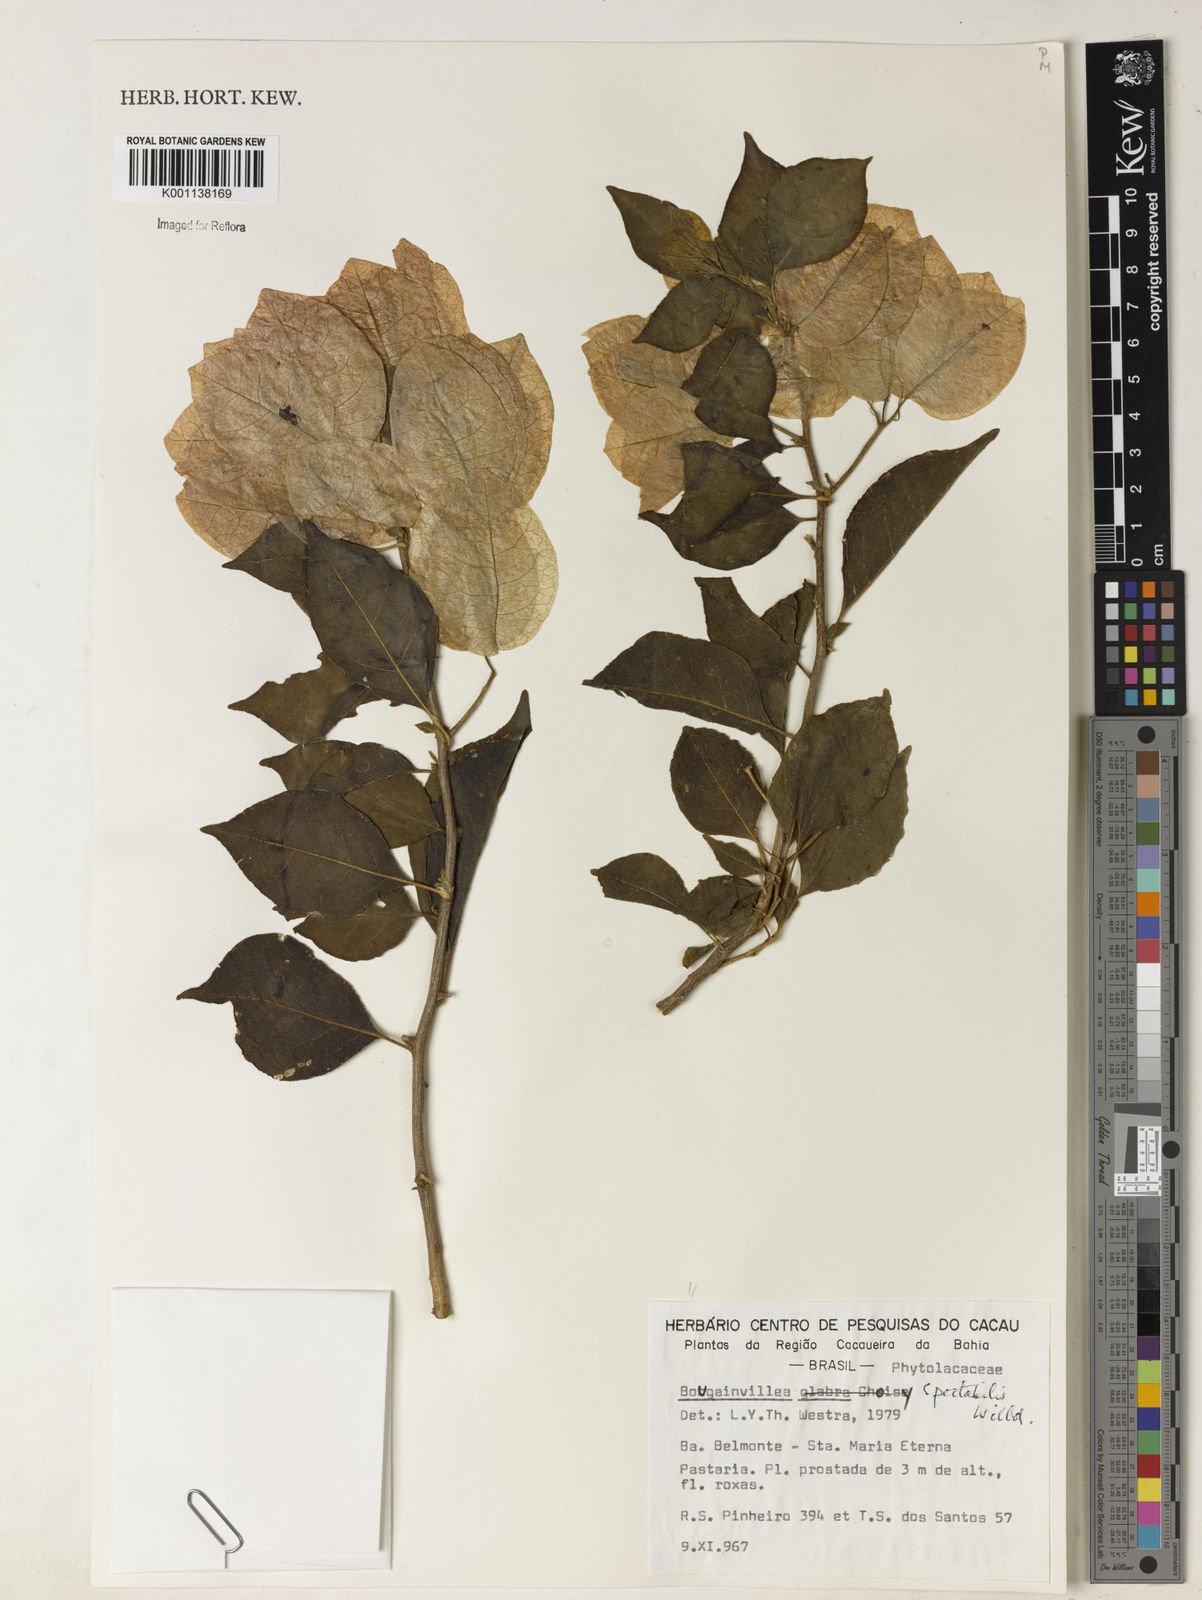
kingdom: Plantae
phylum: Tracheophyta
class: Magnoliopsida
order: Caryophyllales
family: Nyctaginaceae
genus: Bougainvillea
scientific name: Bougainvillea spectabilis
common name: Great bougainvillea
